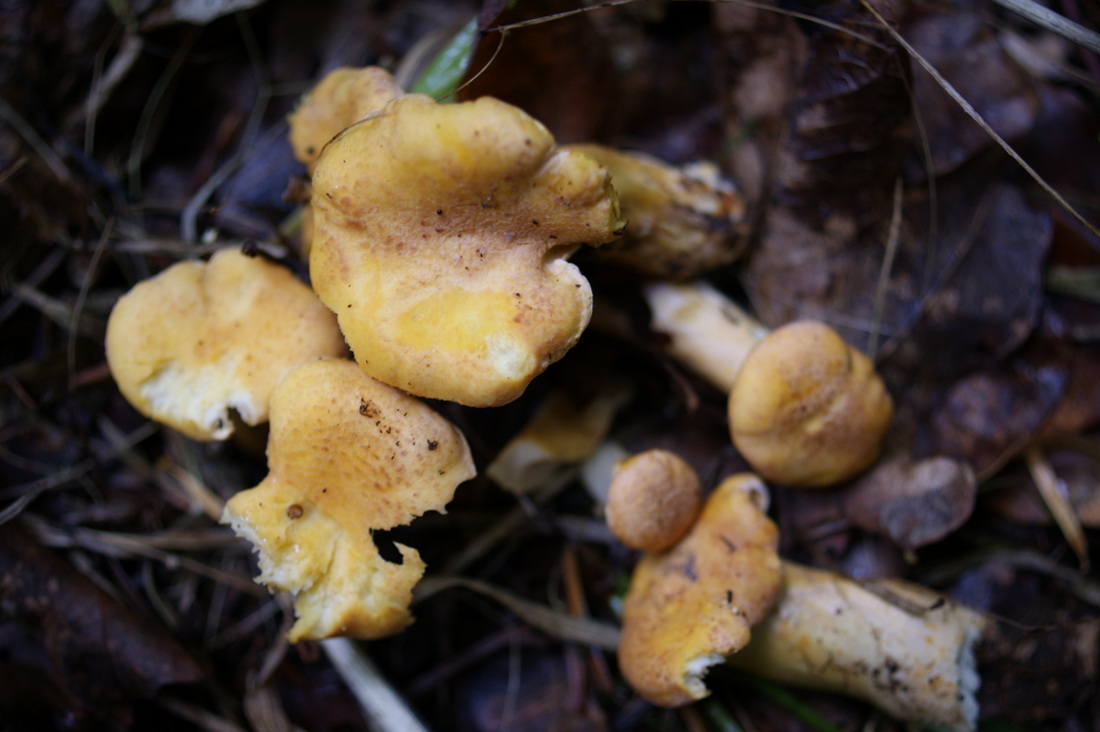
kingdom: Fungi
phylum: Basidiomycota
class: Agaricomycetes
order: Cantharellales
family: Hydnaceae
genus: Cantharellus
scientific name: Cantharellus amethysteus
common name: ametyst-kantarel
